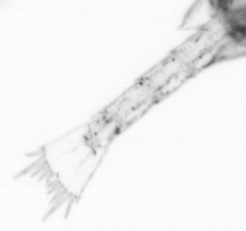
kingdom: Animalia
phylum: Arthropoda
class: Copepoda
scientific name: Copepoda
